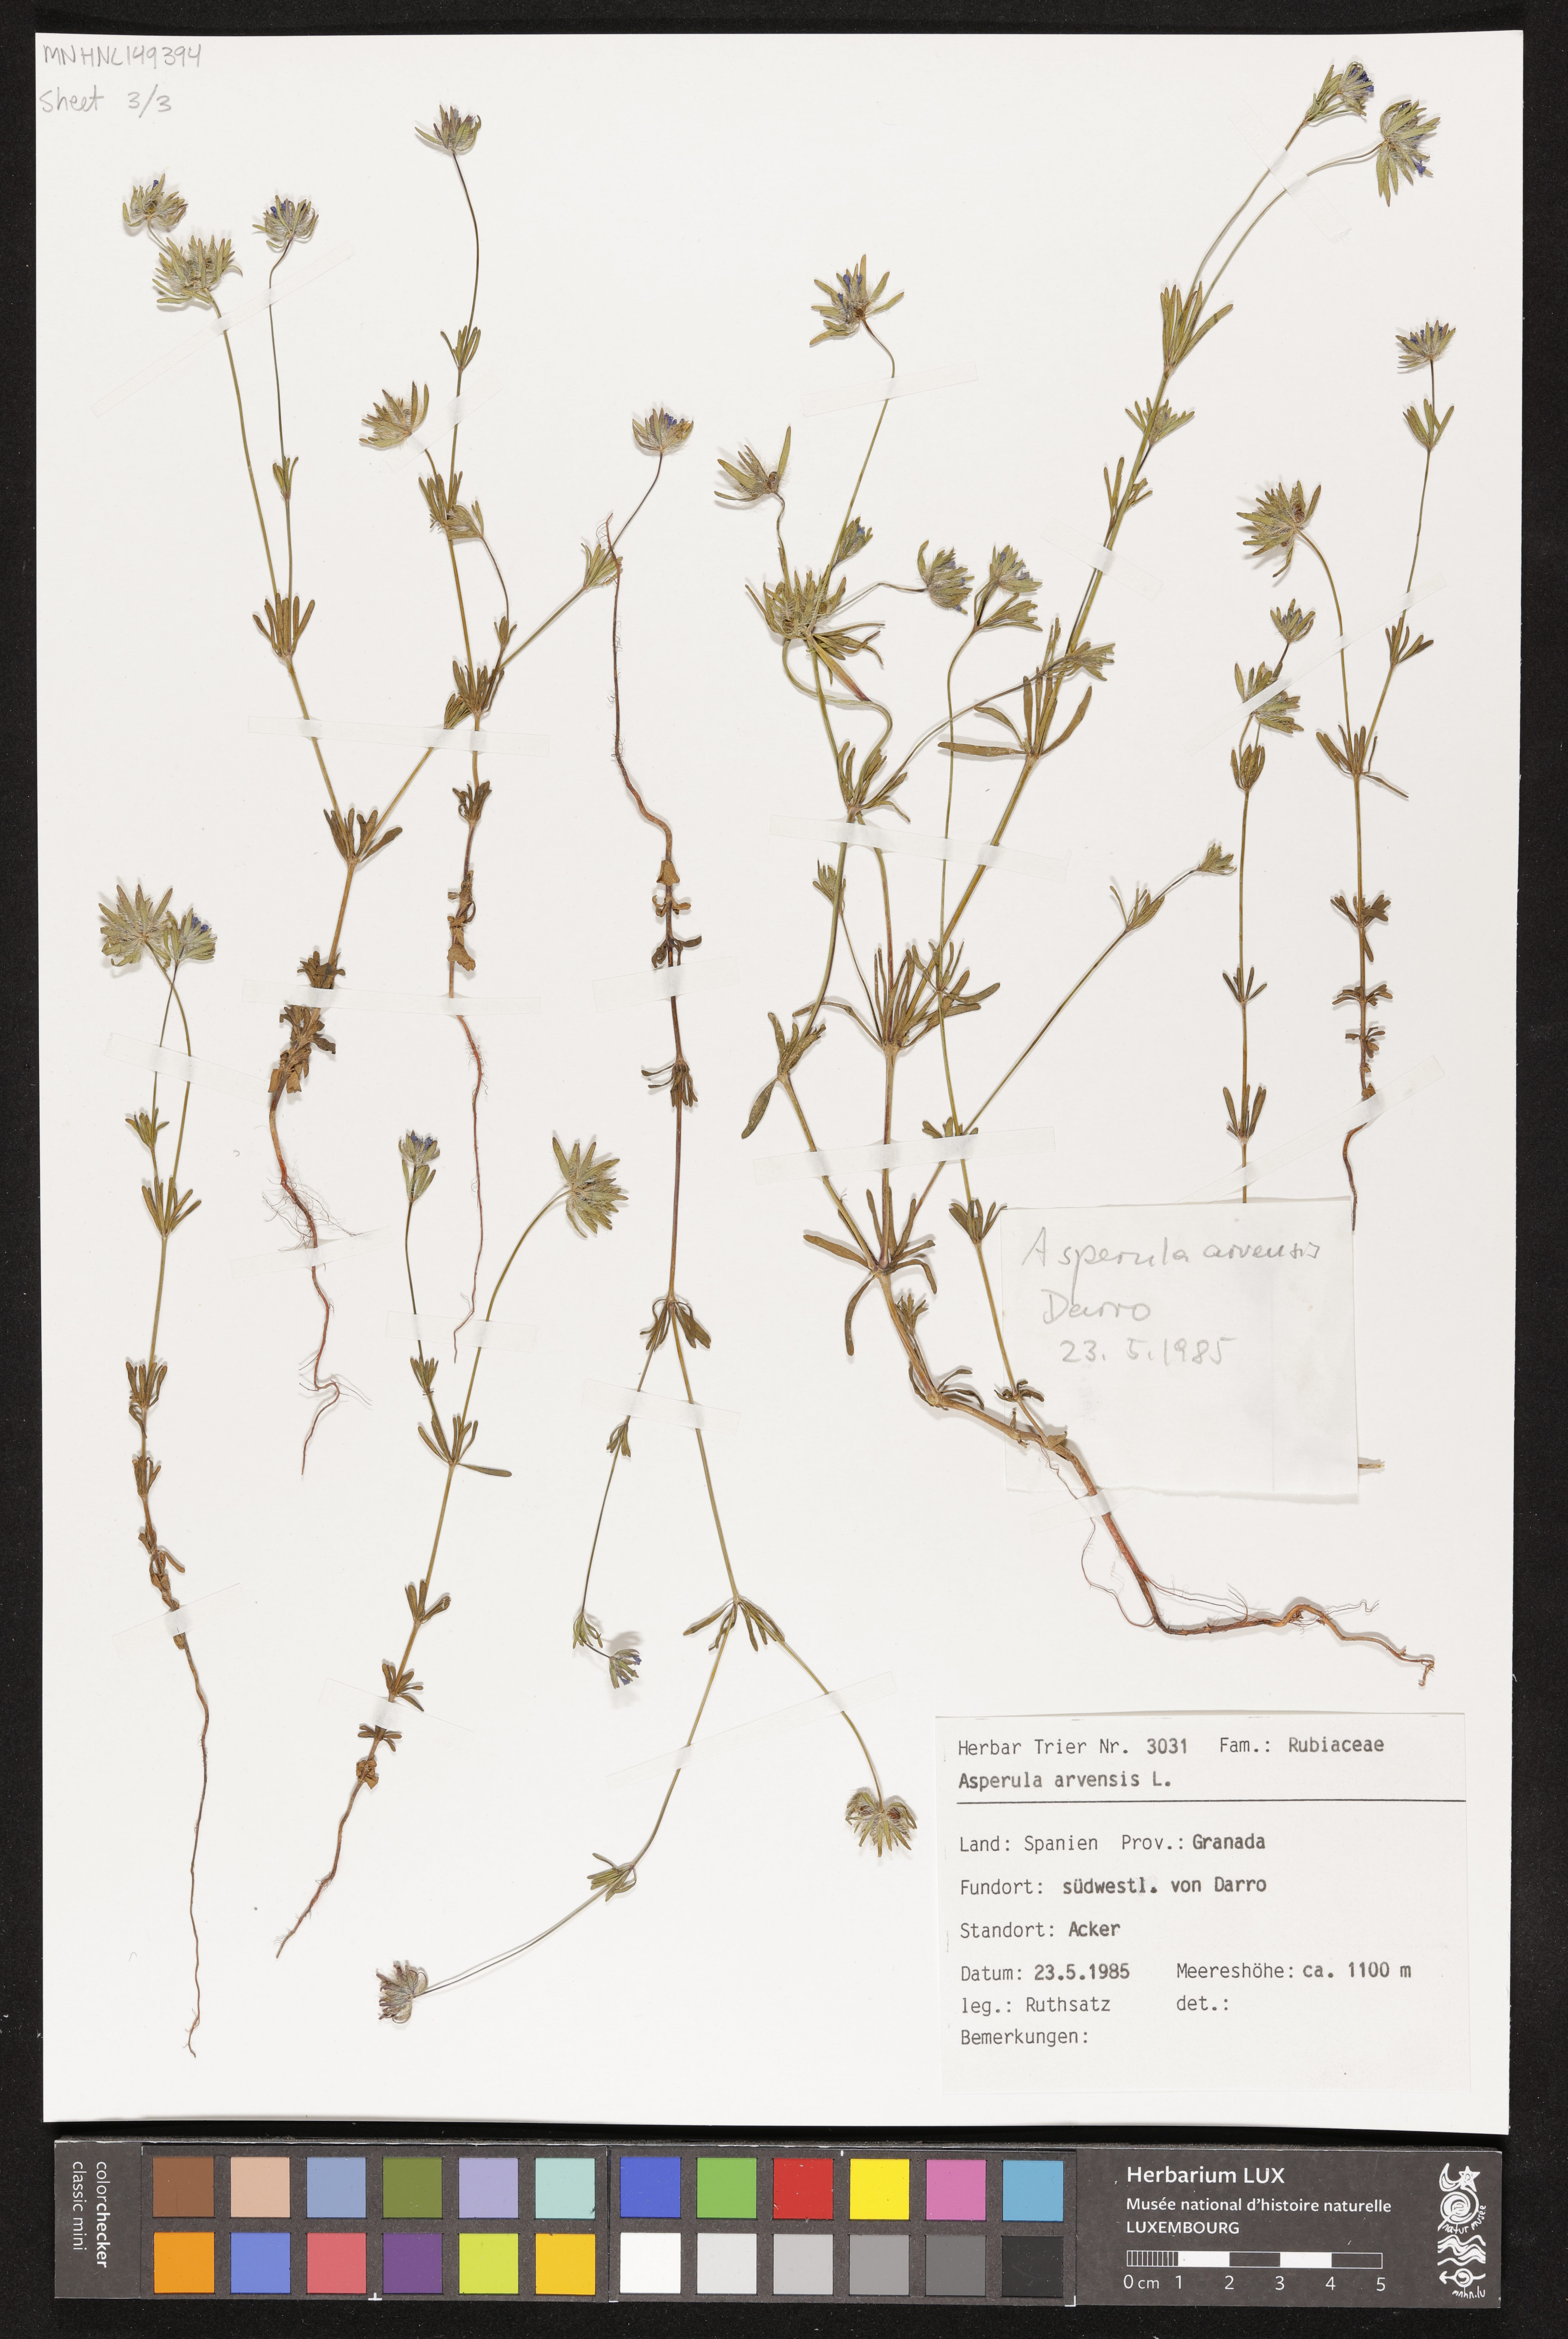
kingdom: Plantae
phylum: Tracheophyta
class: Magnoliopsida
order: Gentianales
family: Rubiaceae
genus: Asperula
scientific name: Asperula arvensis
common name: Blue woodruff
